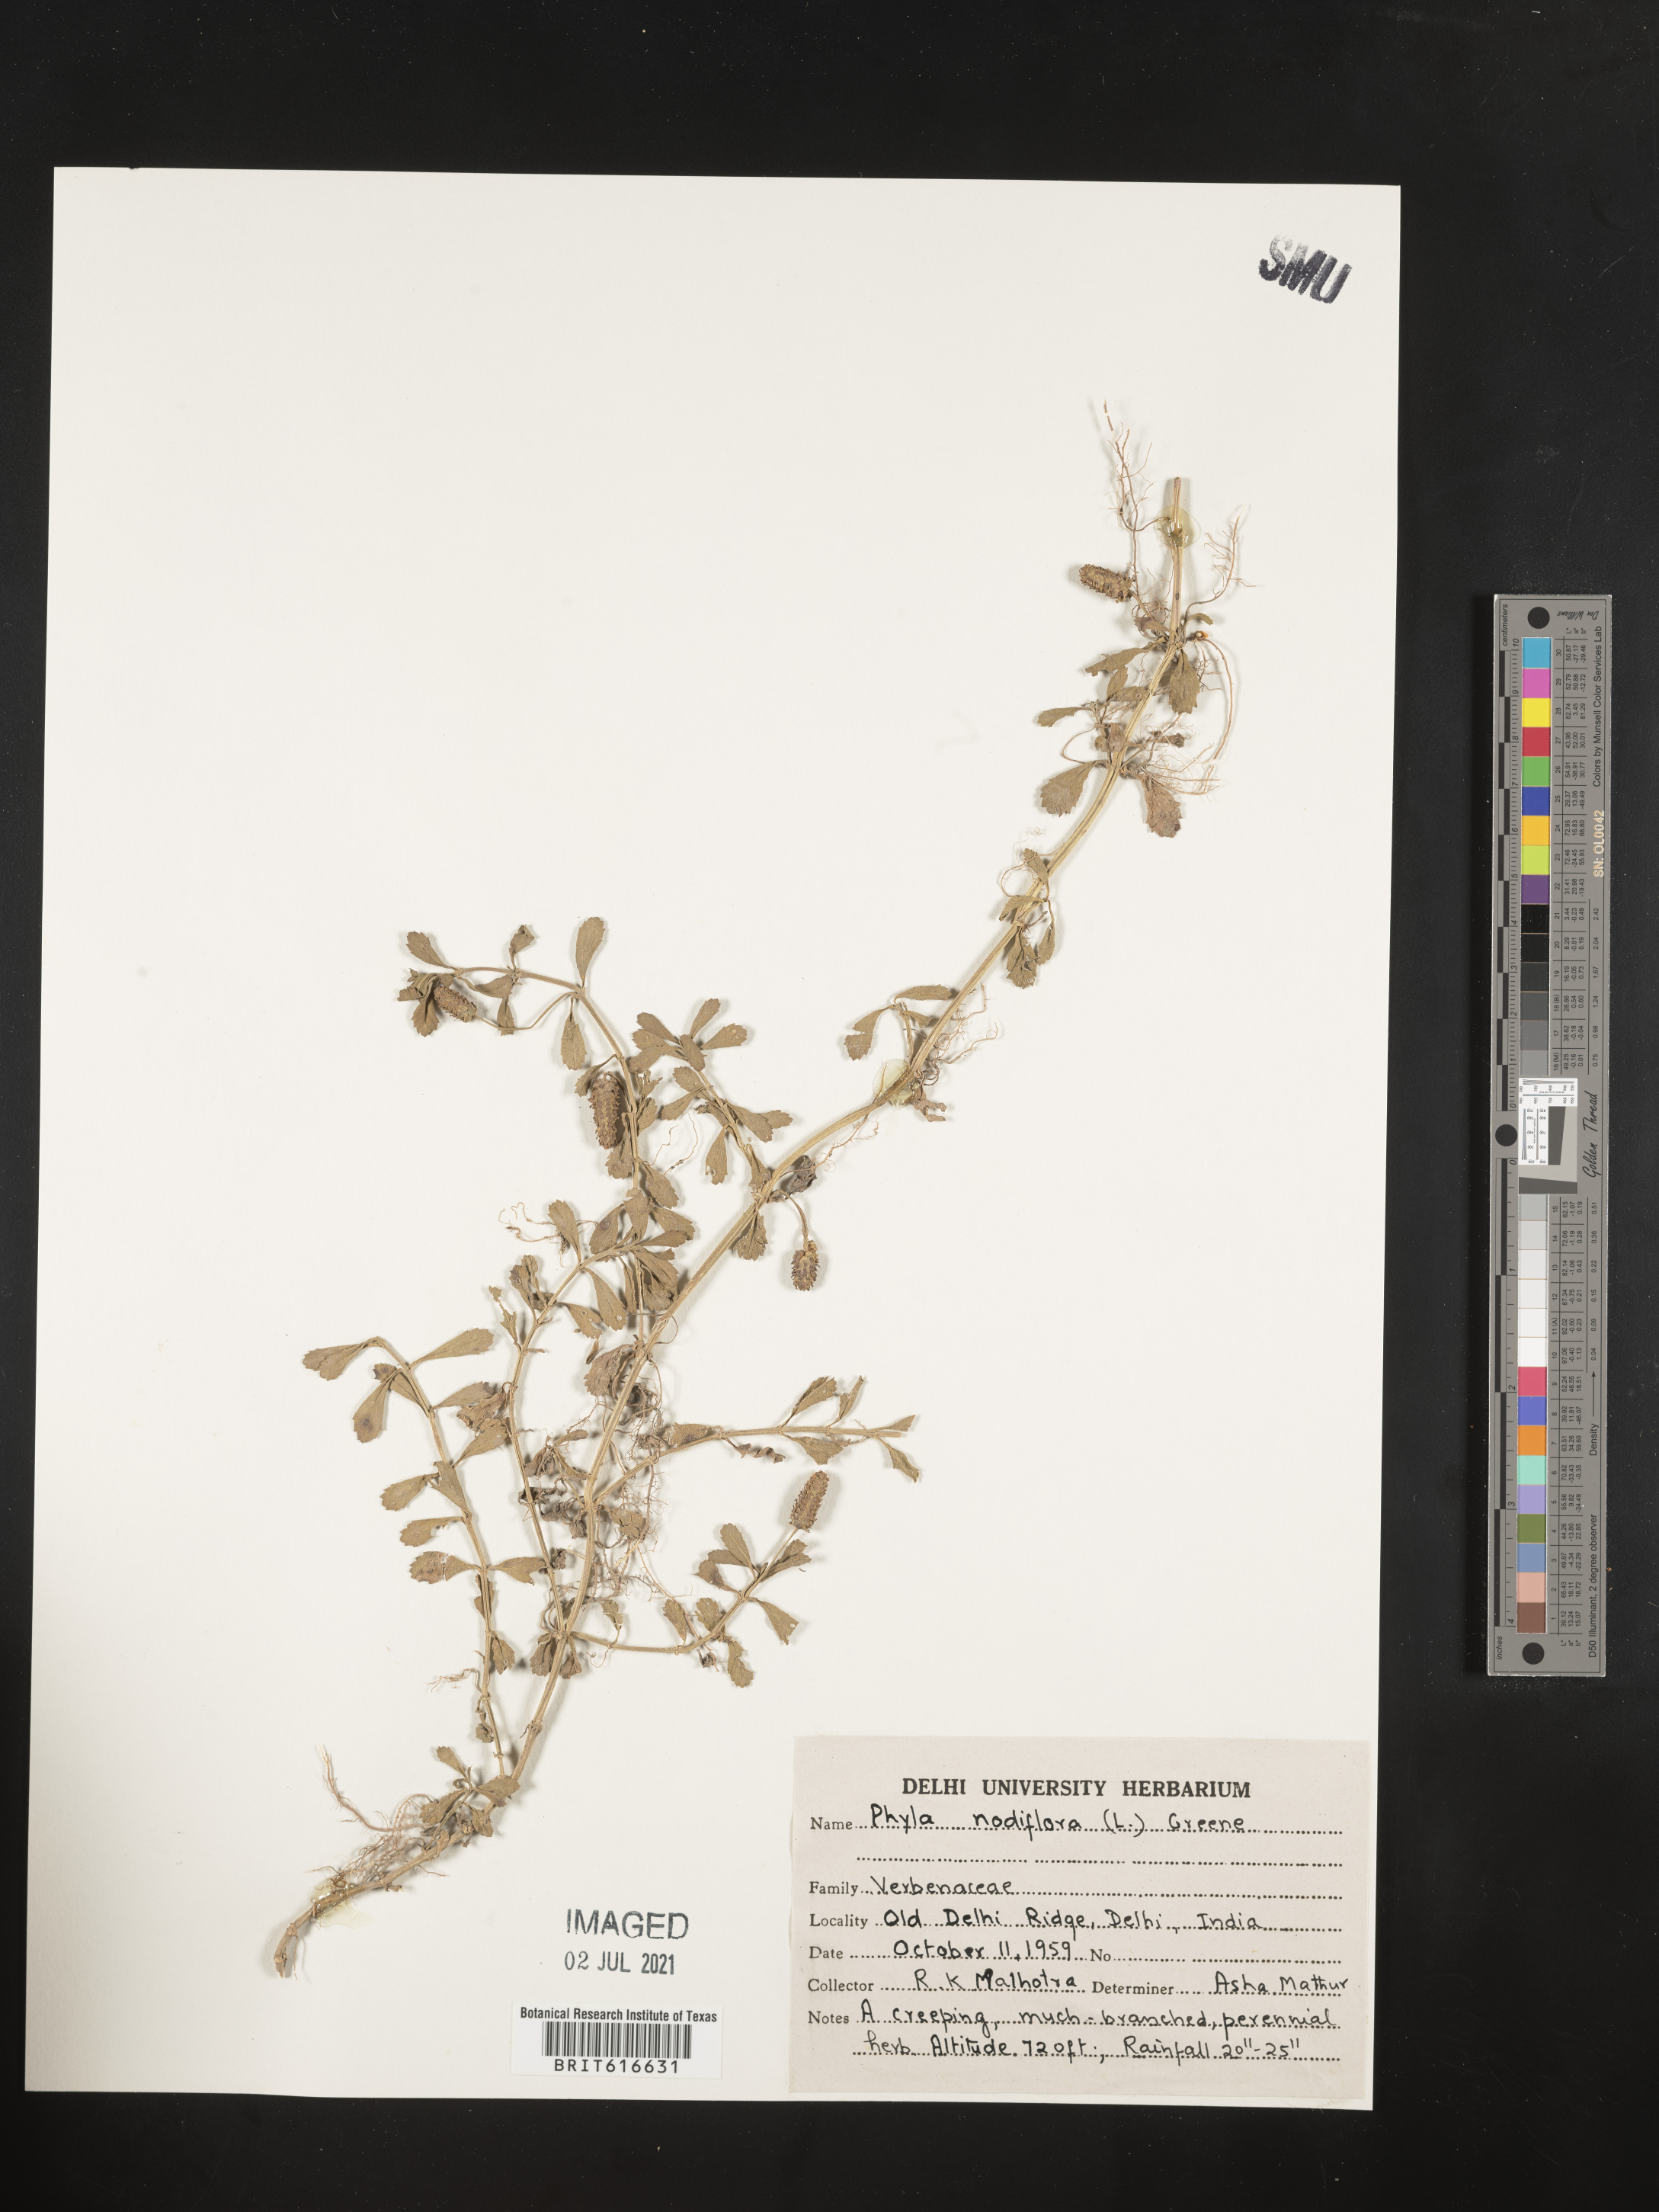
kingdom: Plantae
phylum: Tracheophyta
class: Magnoliopsida
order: Lamiales
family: Verbenaceae
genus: Phyla
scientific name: Phyla nodiflora
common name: Frogfruit
